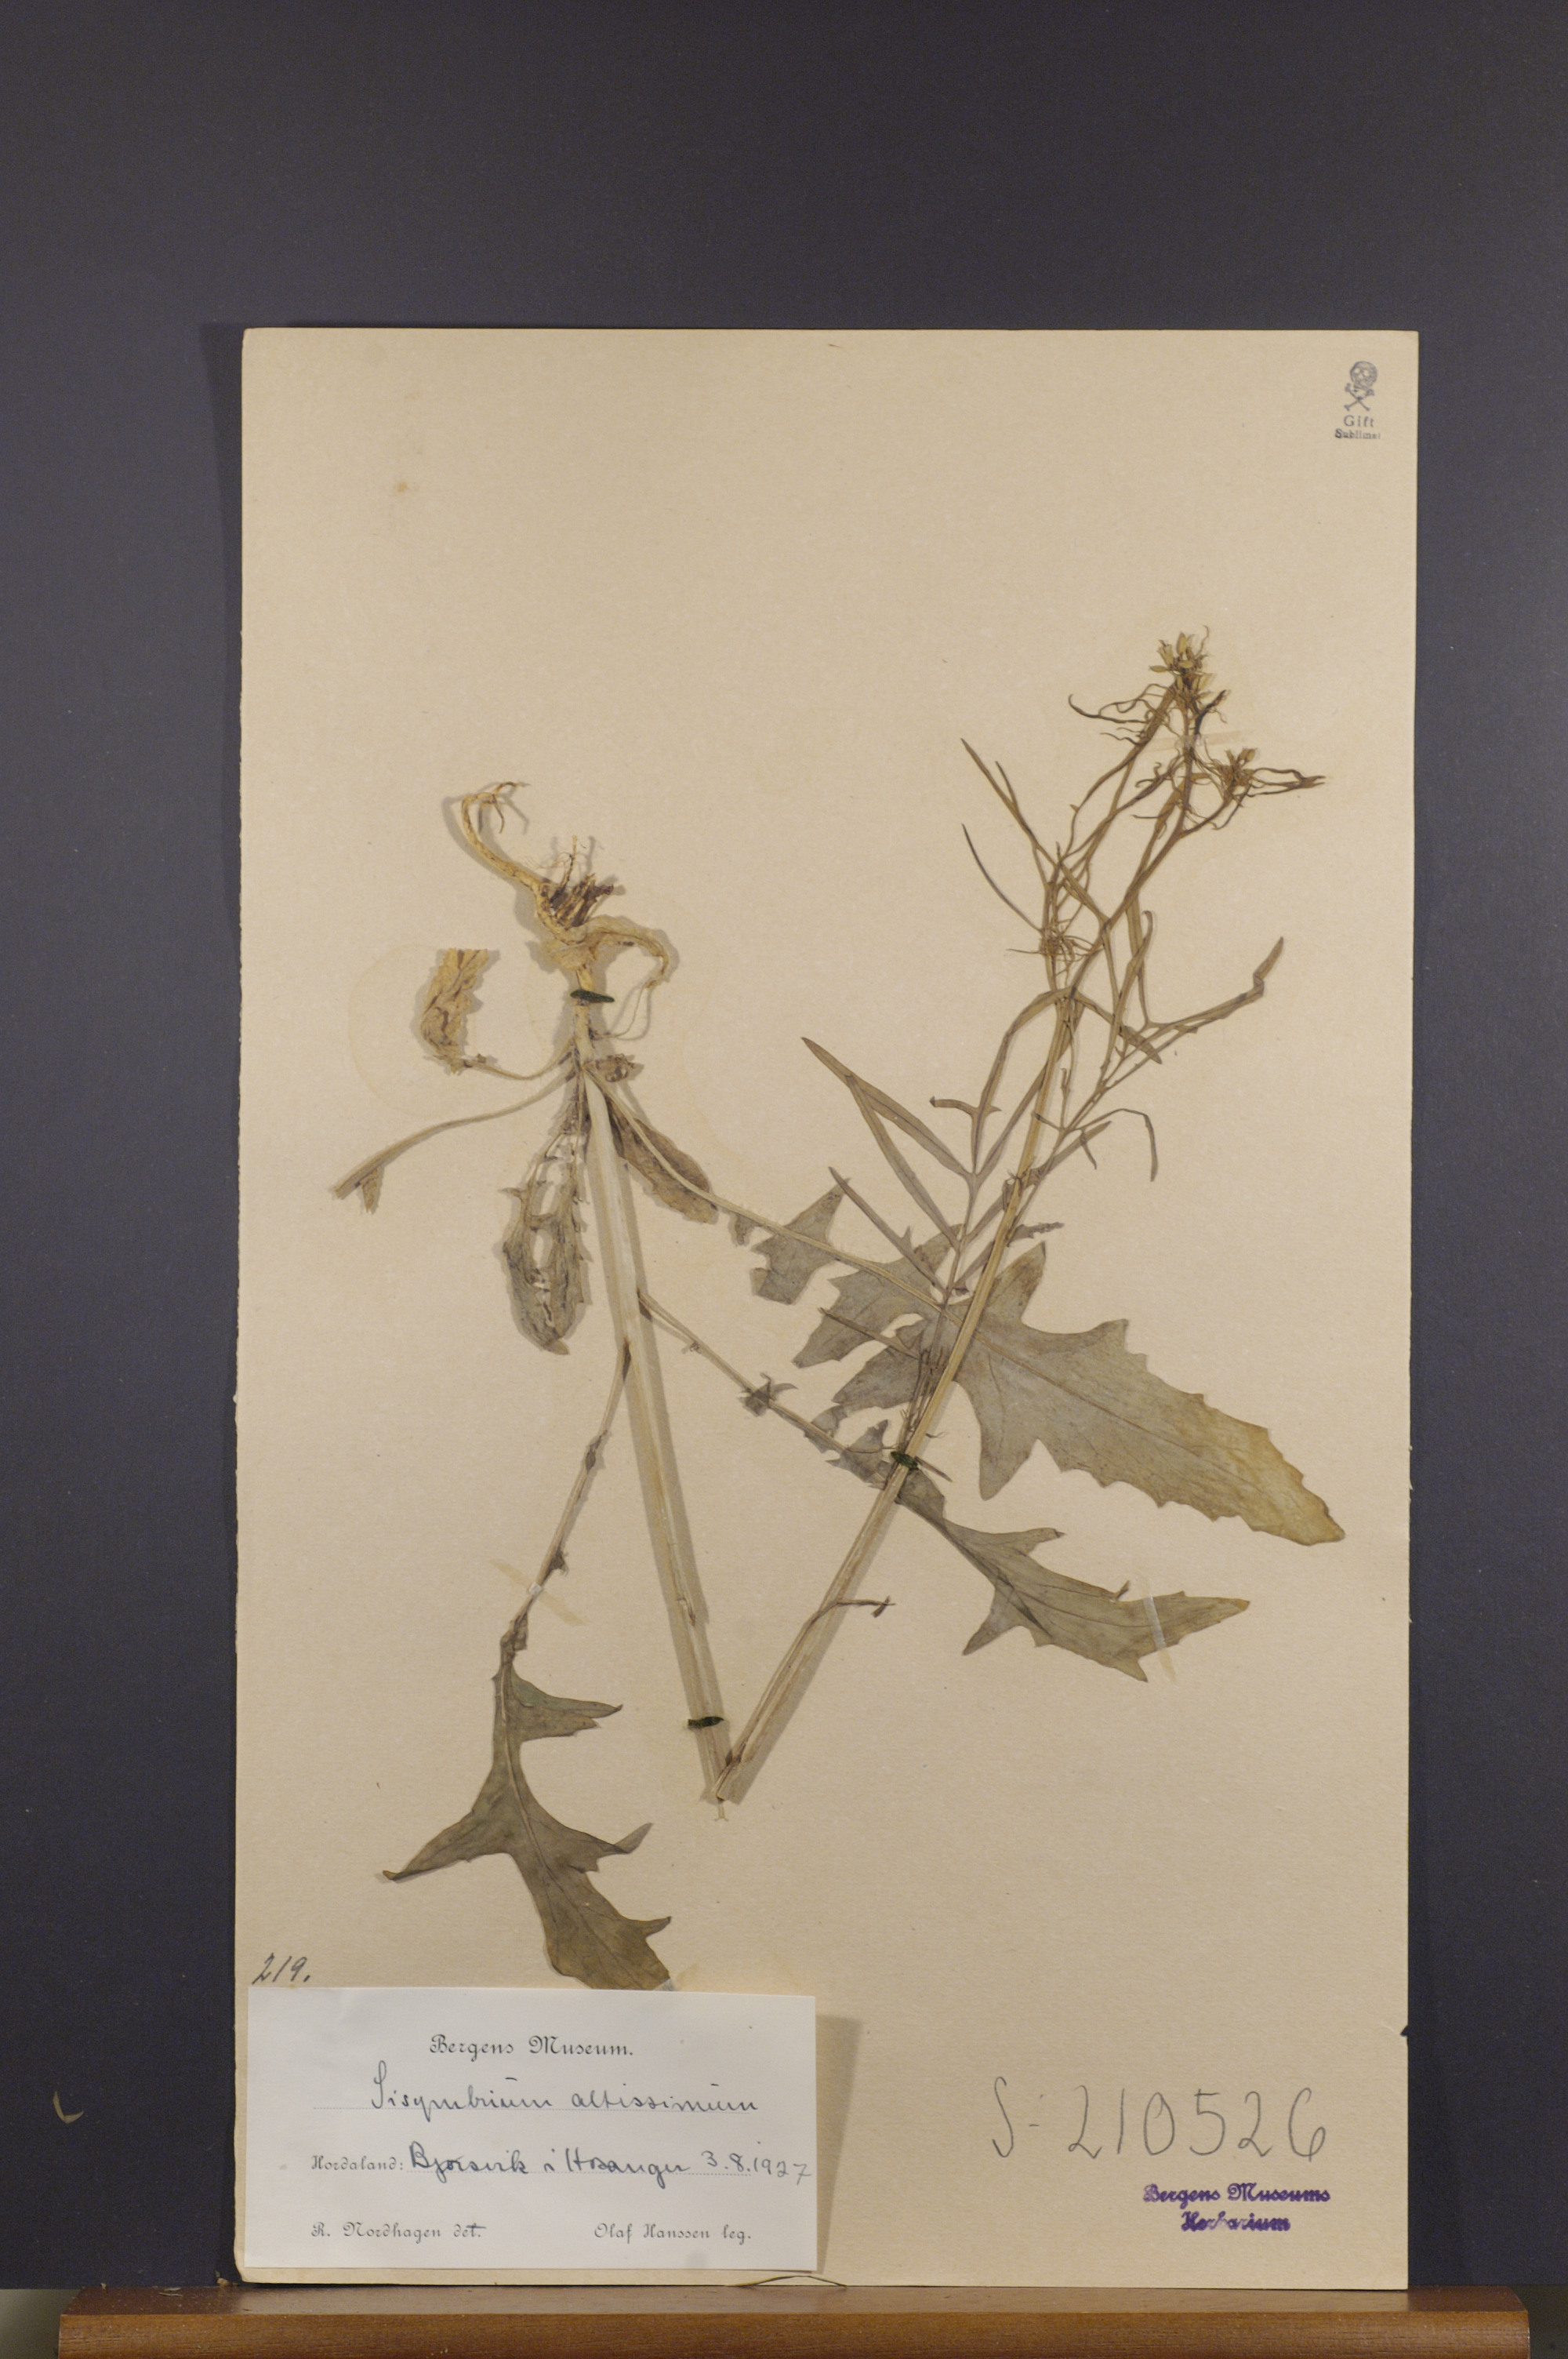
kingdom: Plantae
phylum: Tracheophyta
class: Magnoliopsida
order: Brassicales
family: Brassicaceae
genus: Sisymbrium
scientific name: Sisymbrium altissimum
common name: Tall rocket
